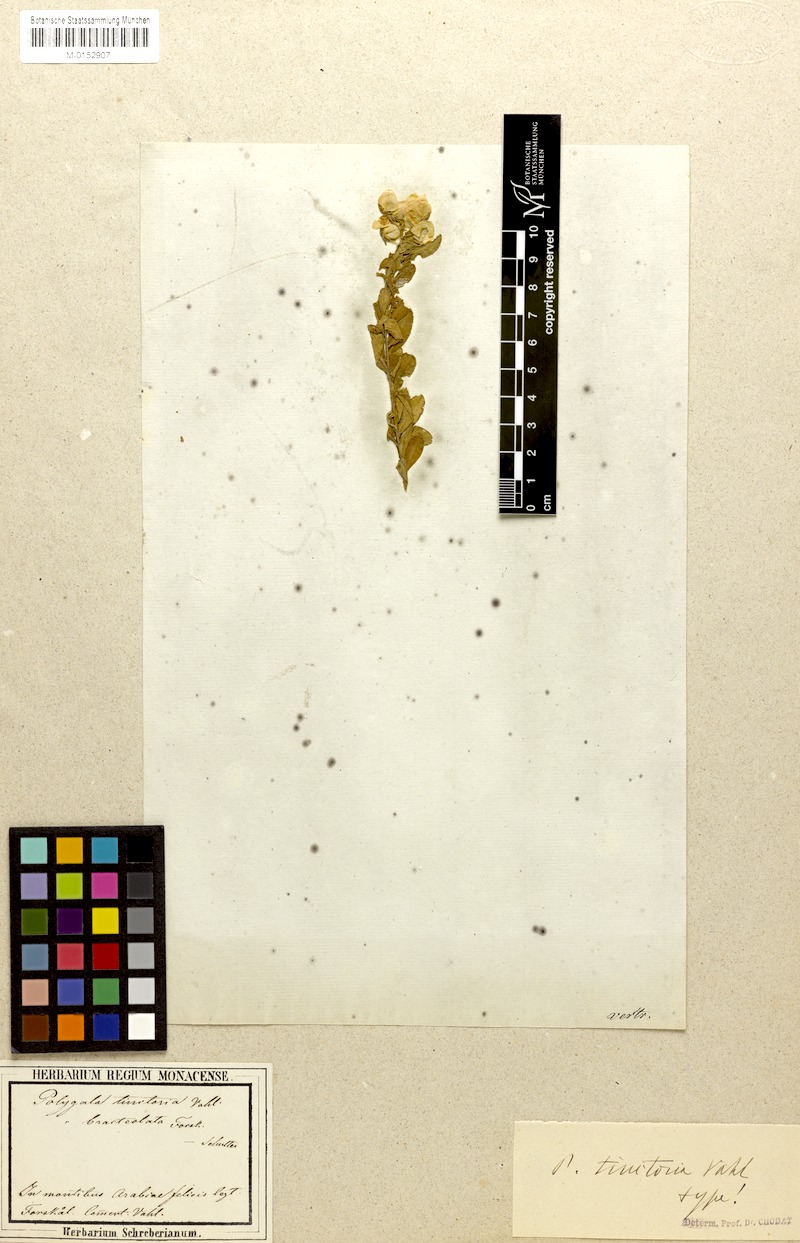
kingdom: Plantae
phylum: Tracheophyta
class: Magnoliopsida
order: Fabales
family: Polygalaceae
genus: Polygala
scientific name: Polygala tinctoria
